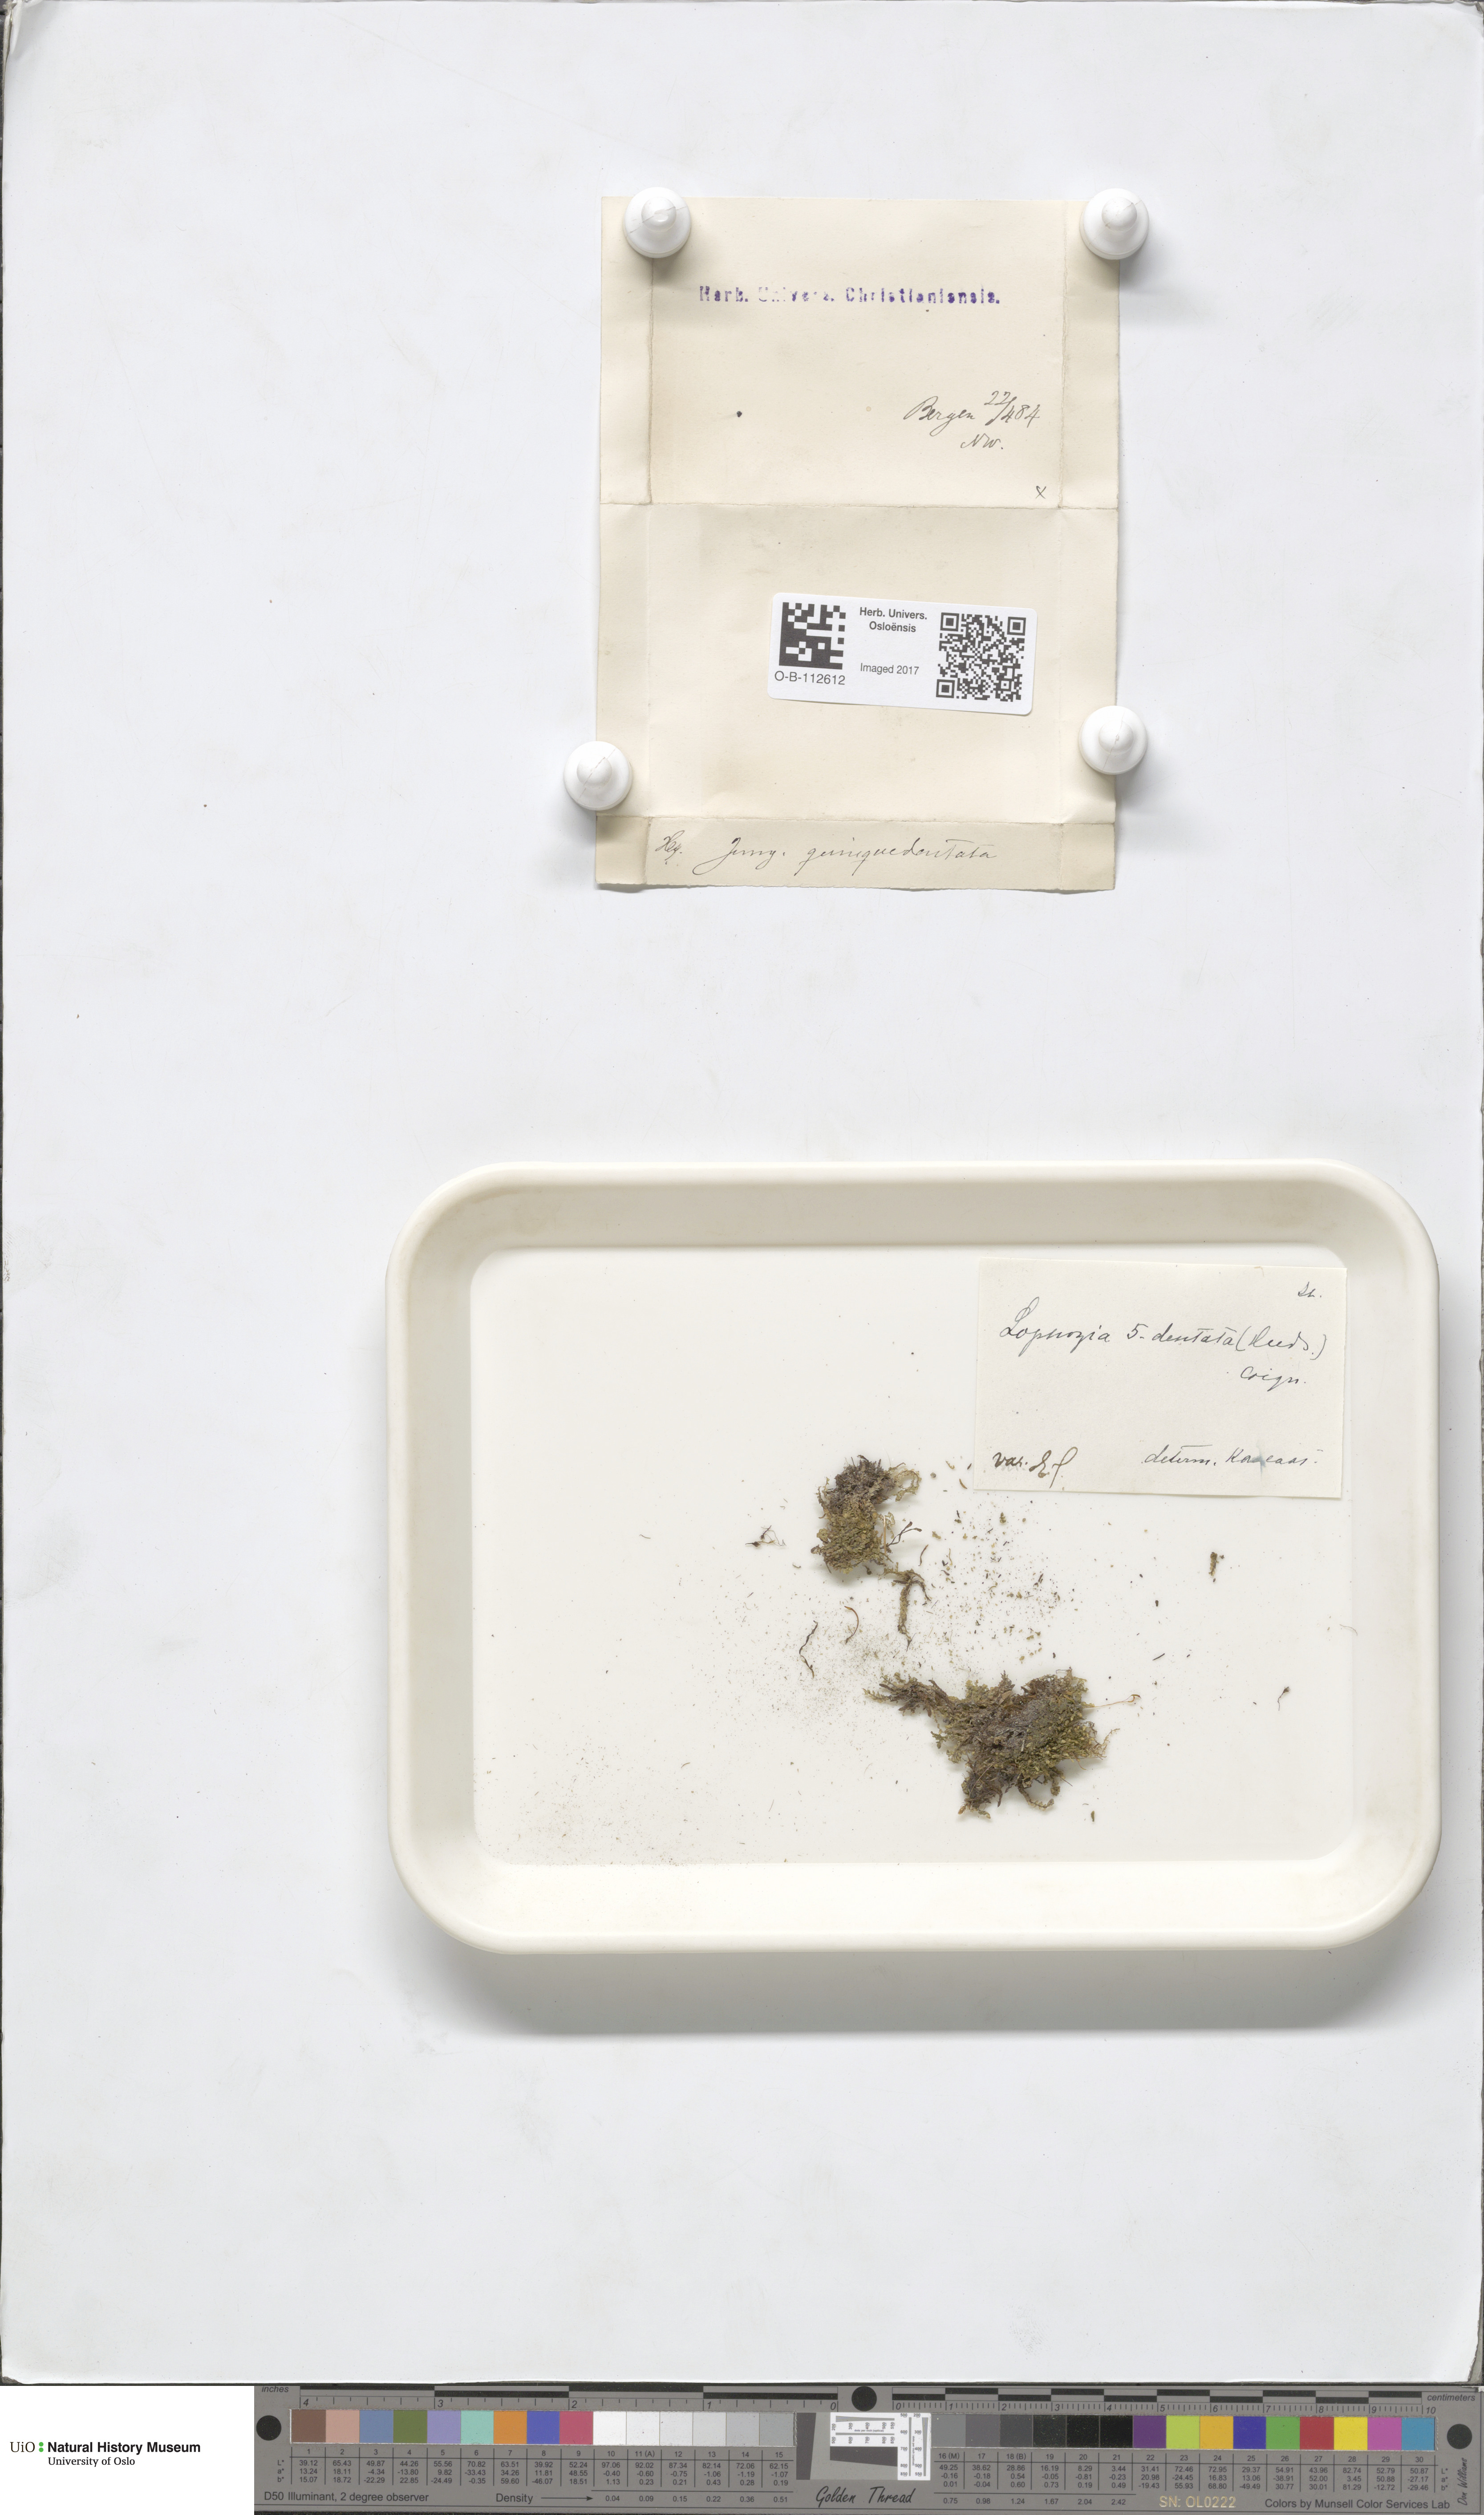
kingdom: Plantae
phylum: Marchantiophyta
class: Jungermanniopsida
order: Jungermanniales
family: Lophoziaceae
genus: Trilophozia
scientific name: Trilophozia quinquedentata
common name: Large notchwort
